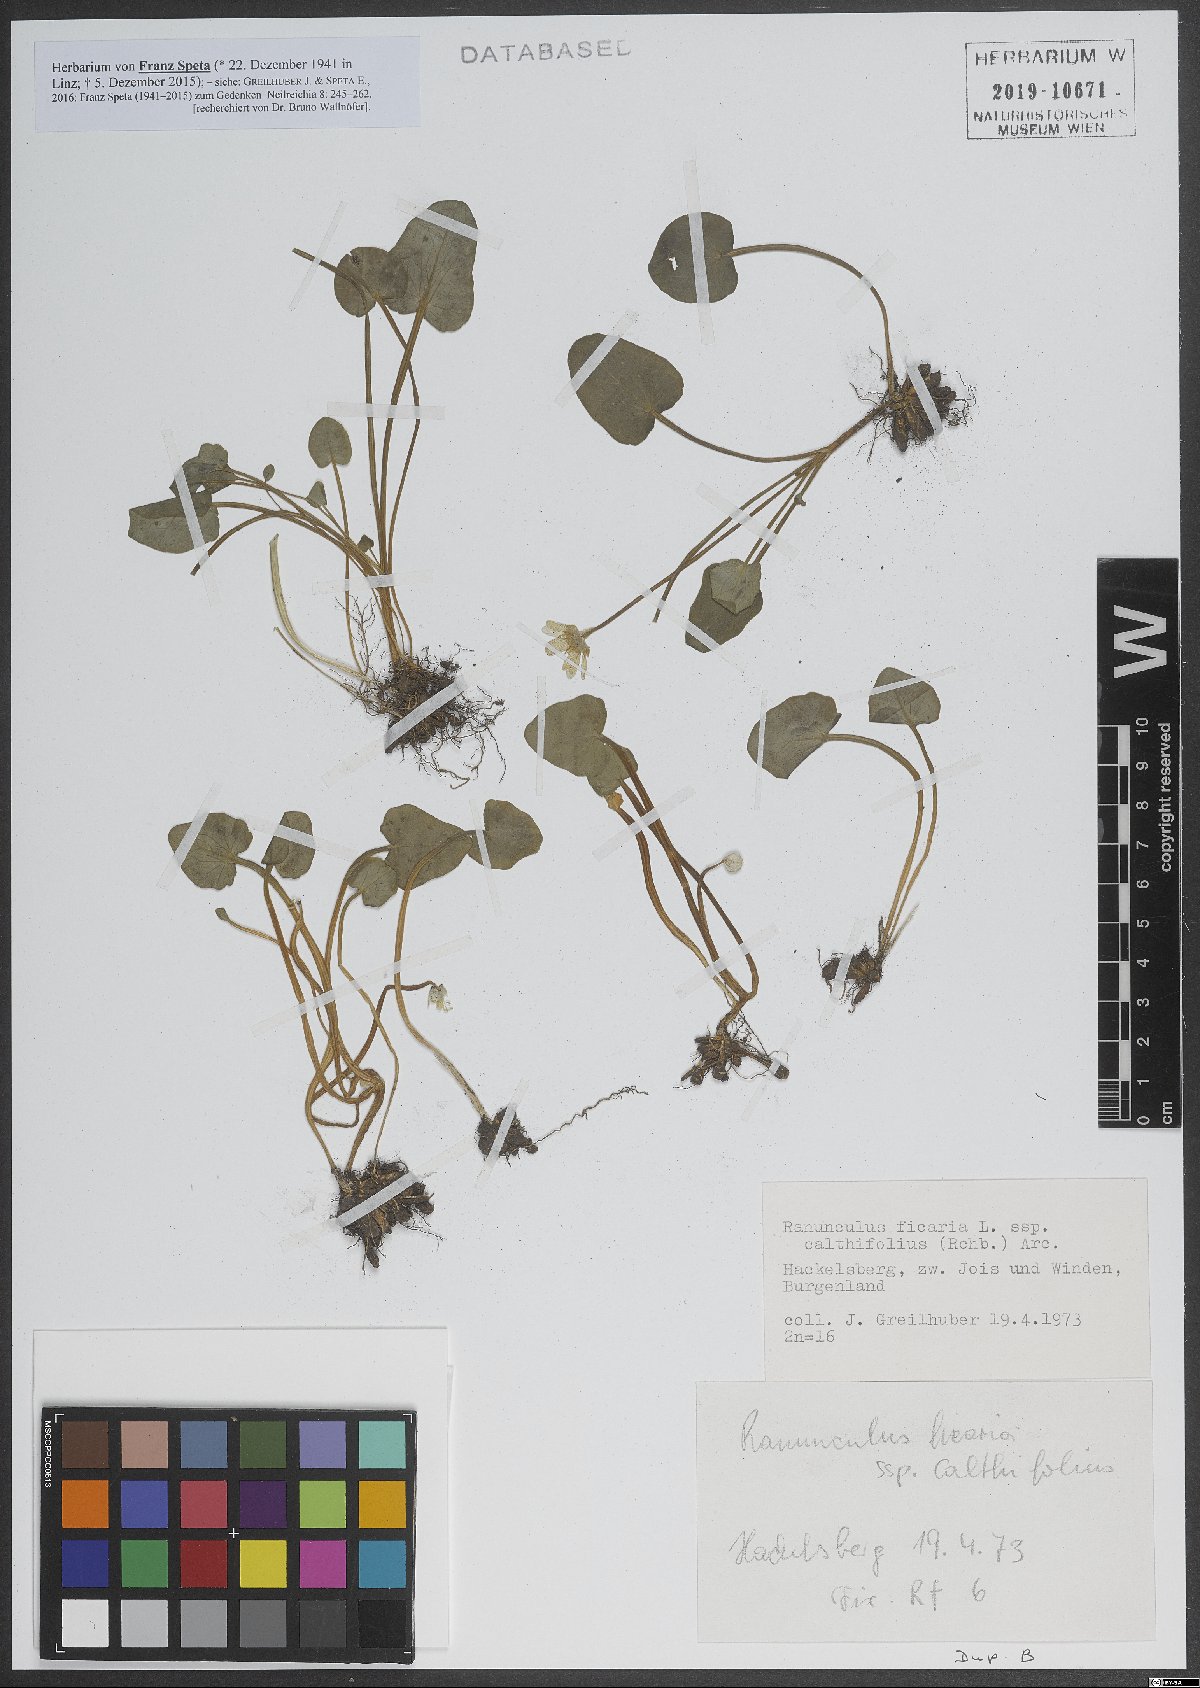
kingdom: Plantae
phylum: Tracheophyta
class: Magnoliopsida
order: Ranunculales
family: Ranunculaceae
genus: Ficaria
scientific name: Ficaria calthifolia
